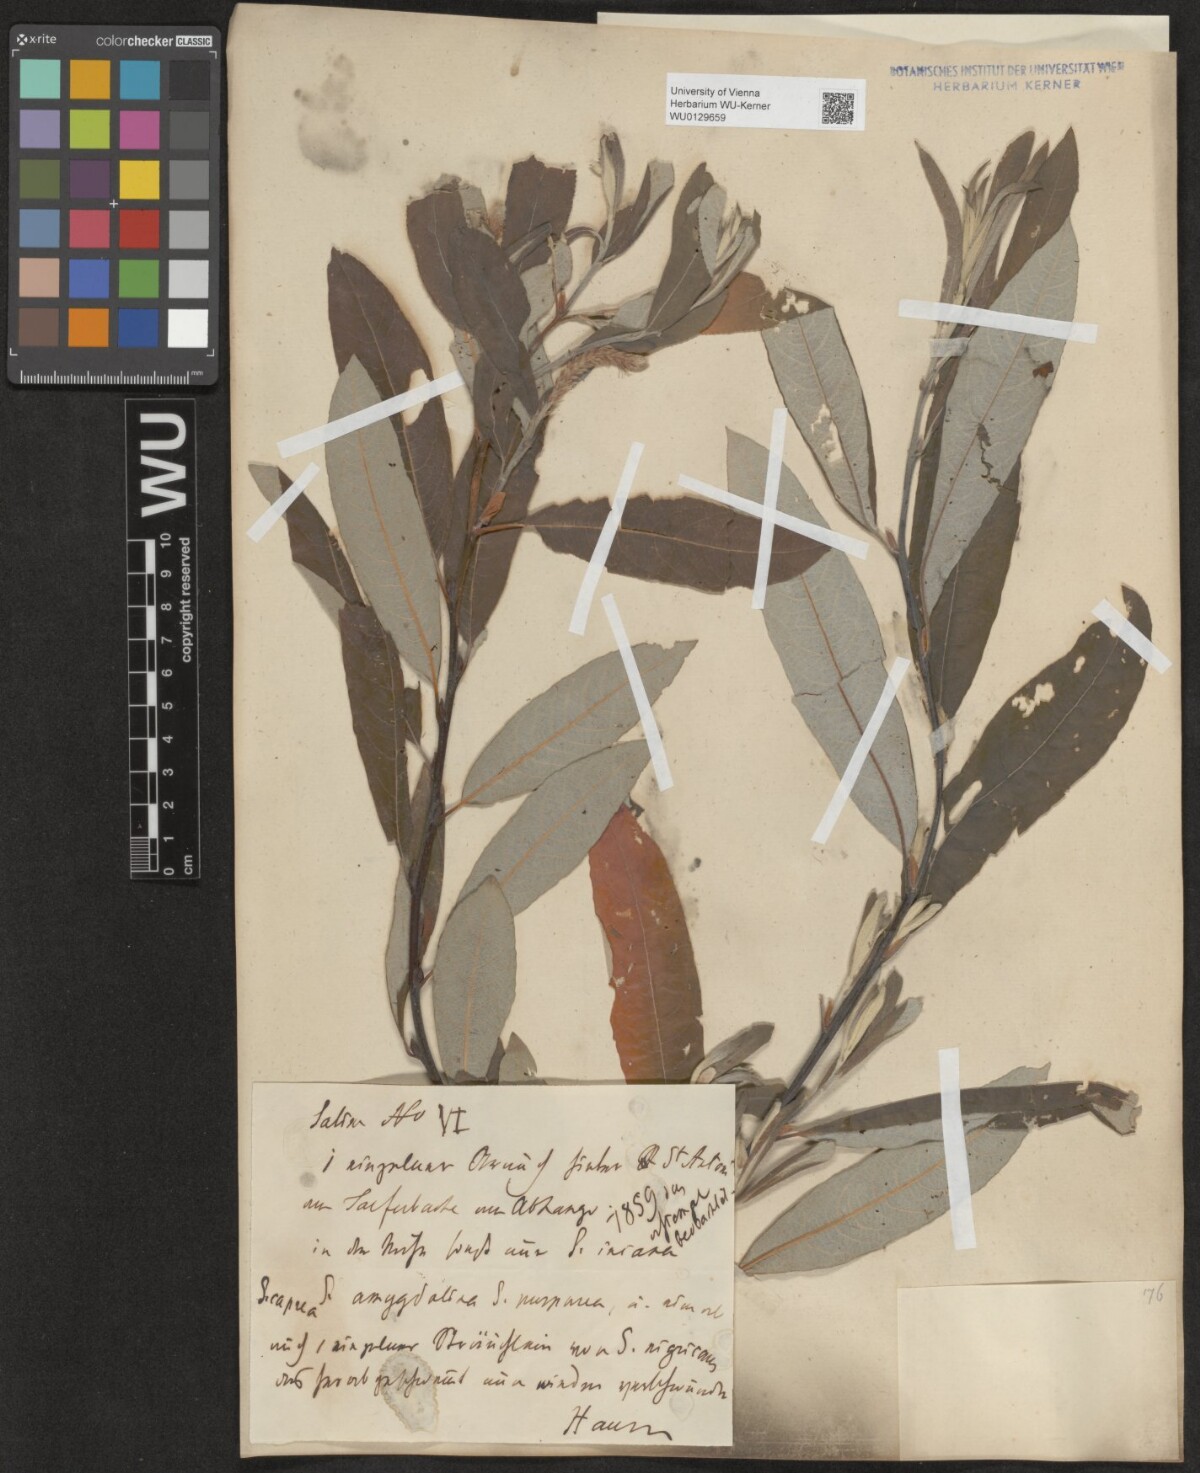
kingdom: Plantae
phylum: Tracheophyta
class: Magnoliopsida
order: Malpighiales
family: Salicaceae
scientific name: Salicaceae
